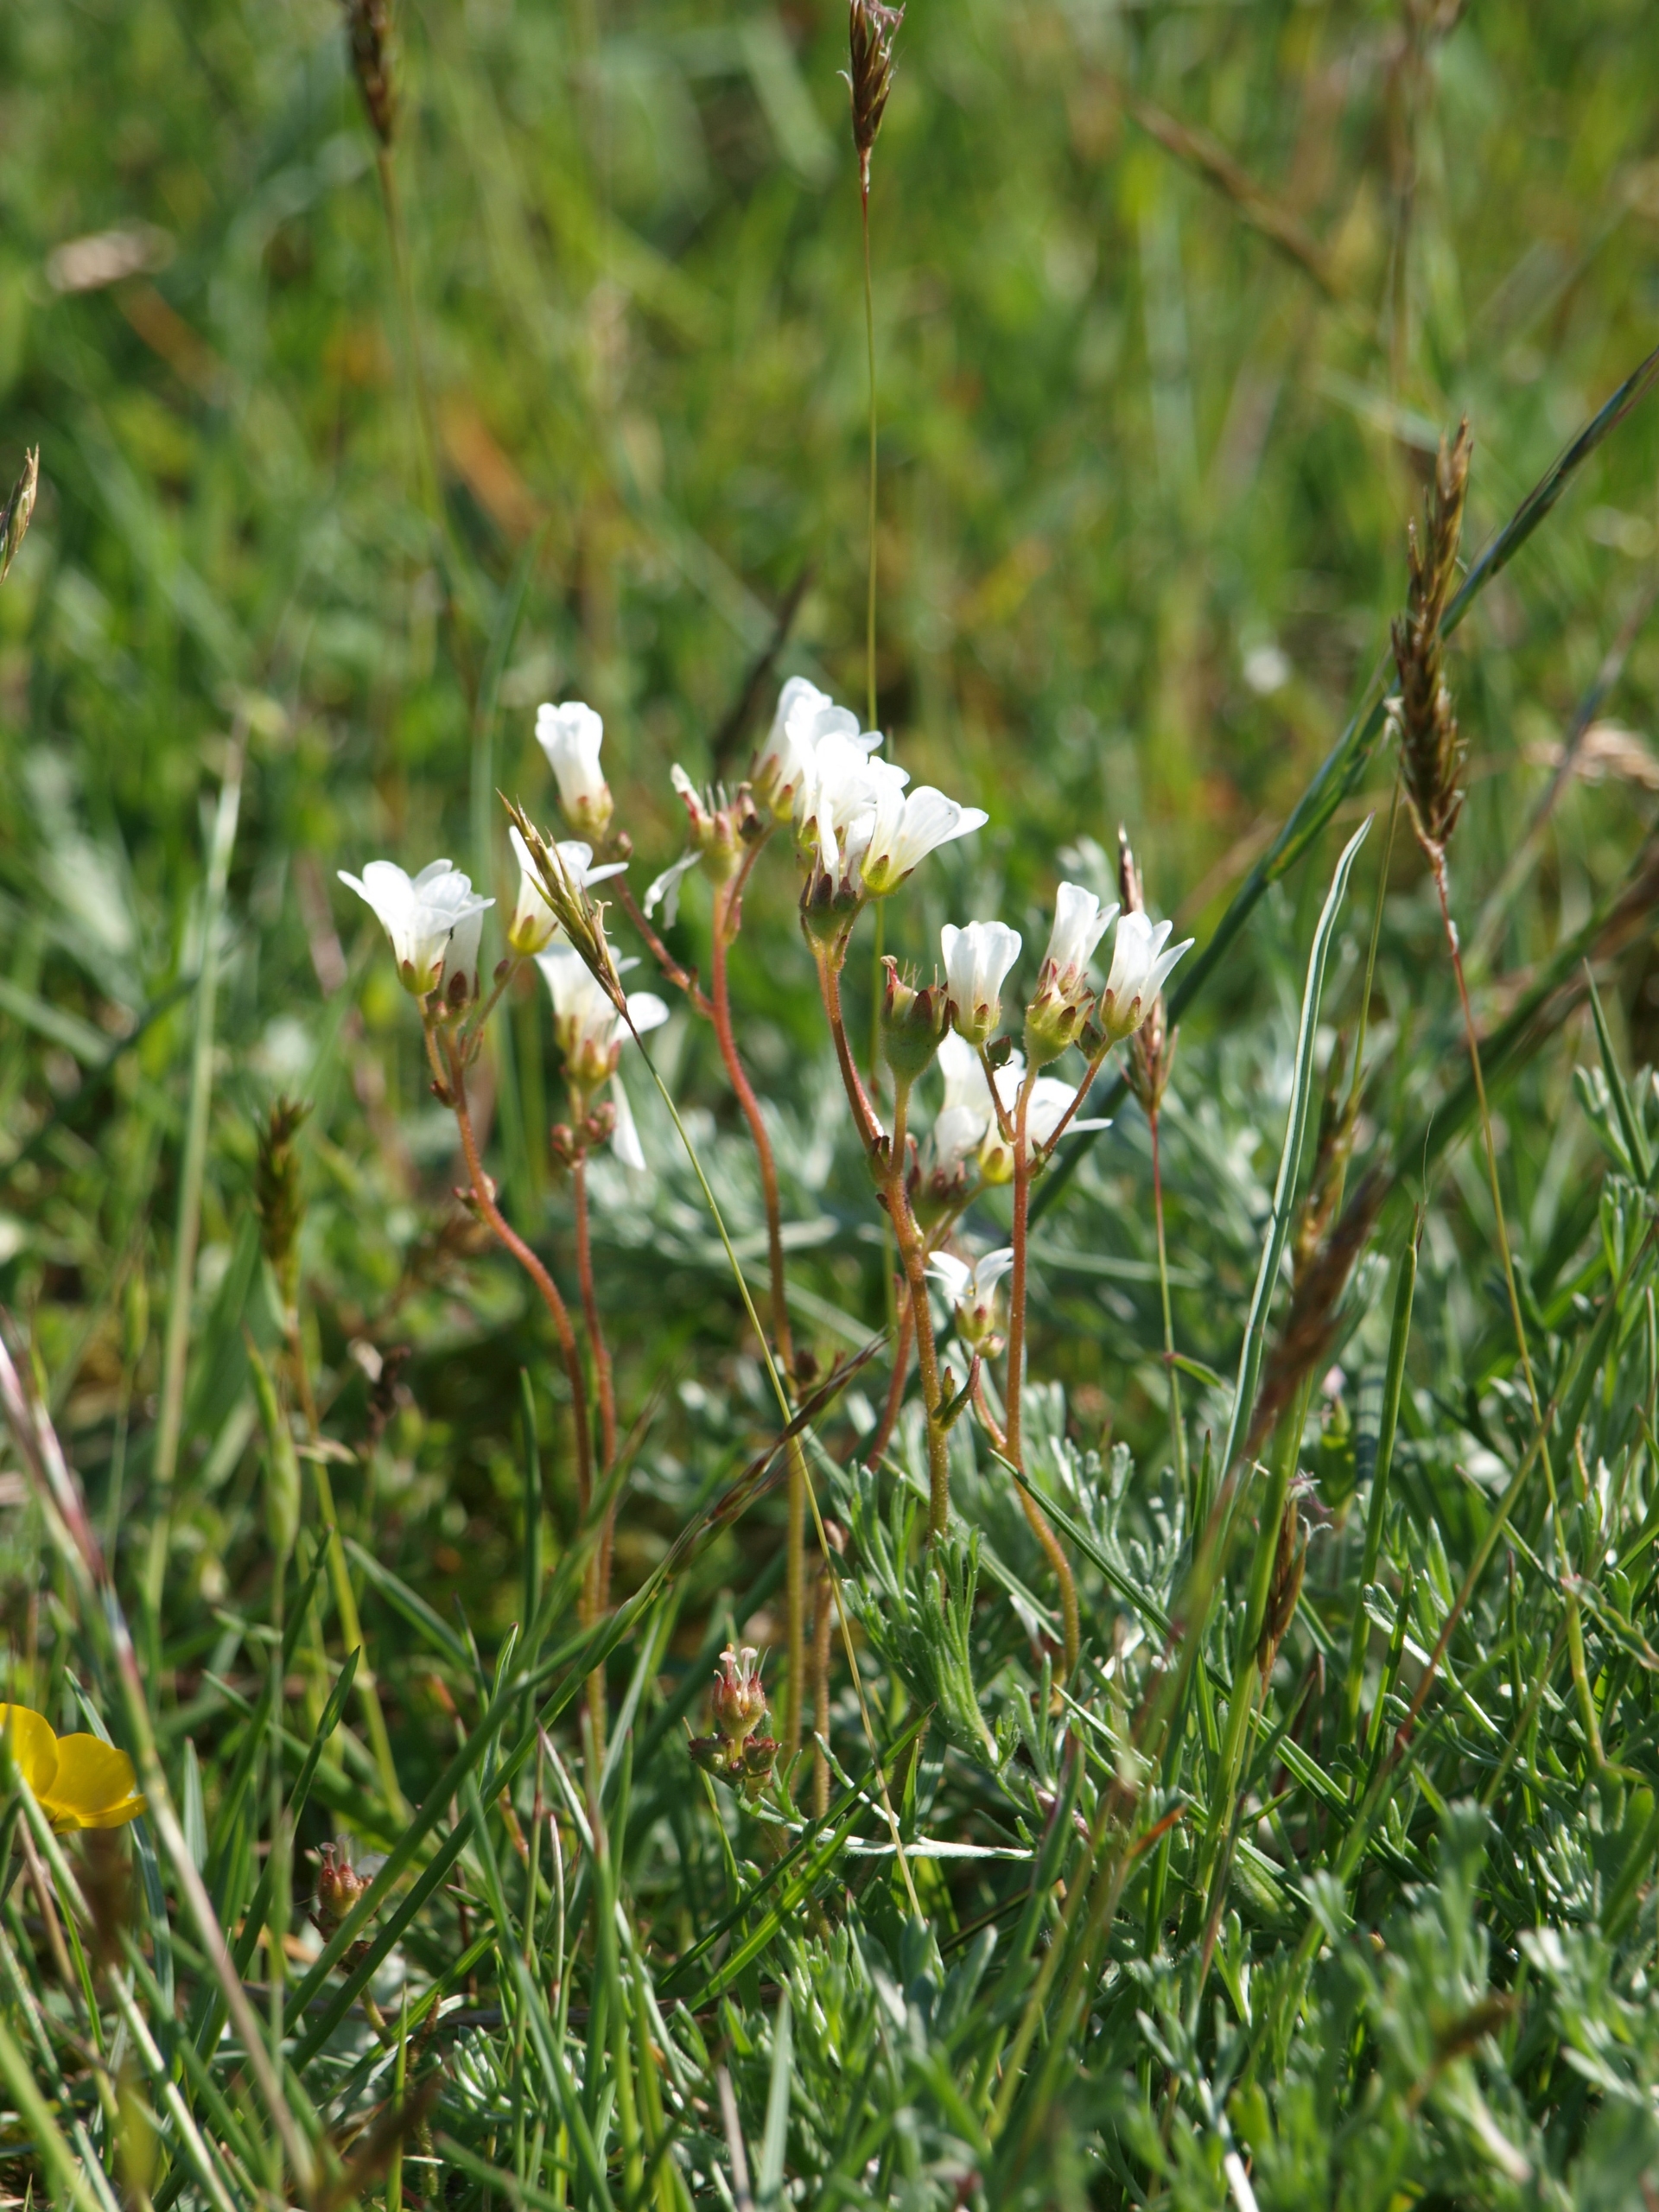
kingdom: Plantae
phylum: Tracheophyta
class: Magnoliopsida
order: Saxifragales
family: Saxifragaceae
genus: Saxifraga
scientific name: Saxifraga granulata
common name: Kornet stenbræk
